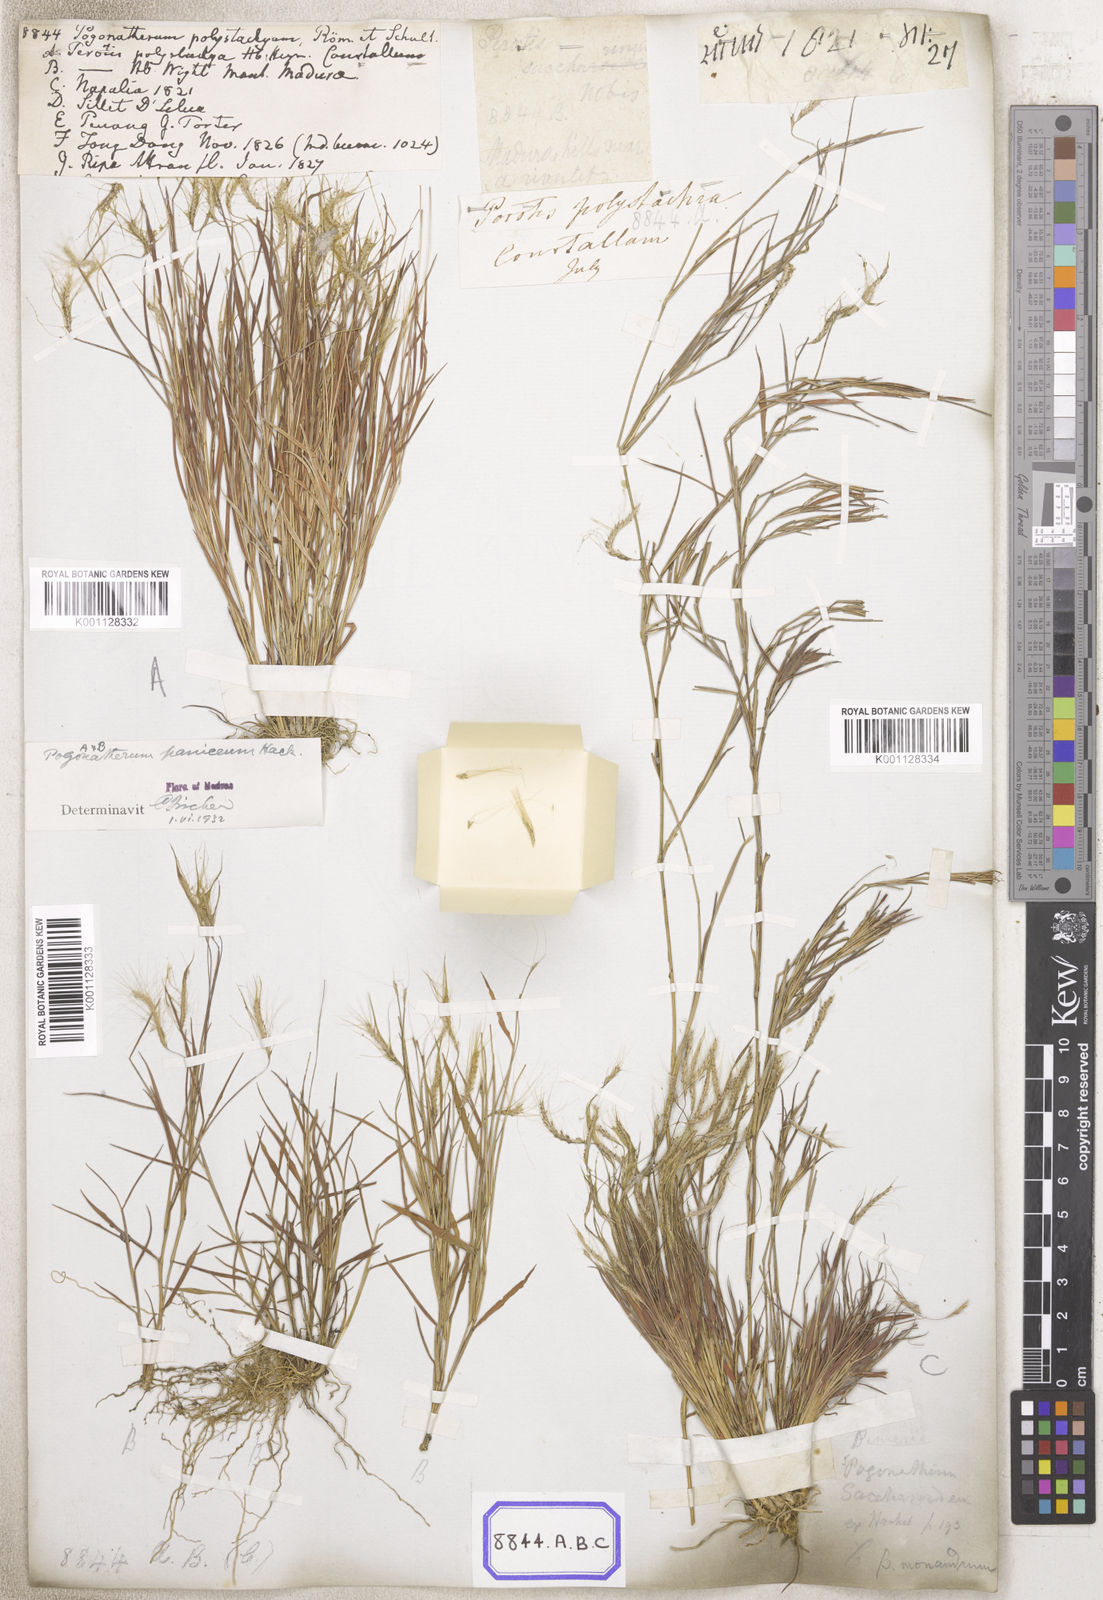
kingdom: Plantae
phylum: Tracheophyta
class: Liliopsida
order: Poales
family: Poaceae
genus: Pogonatherum
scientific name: Pogonatherum paniceum
